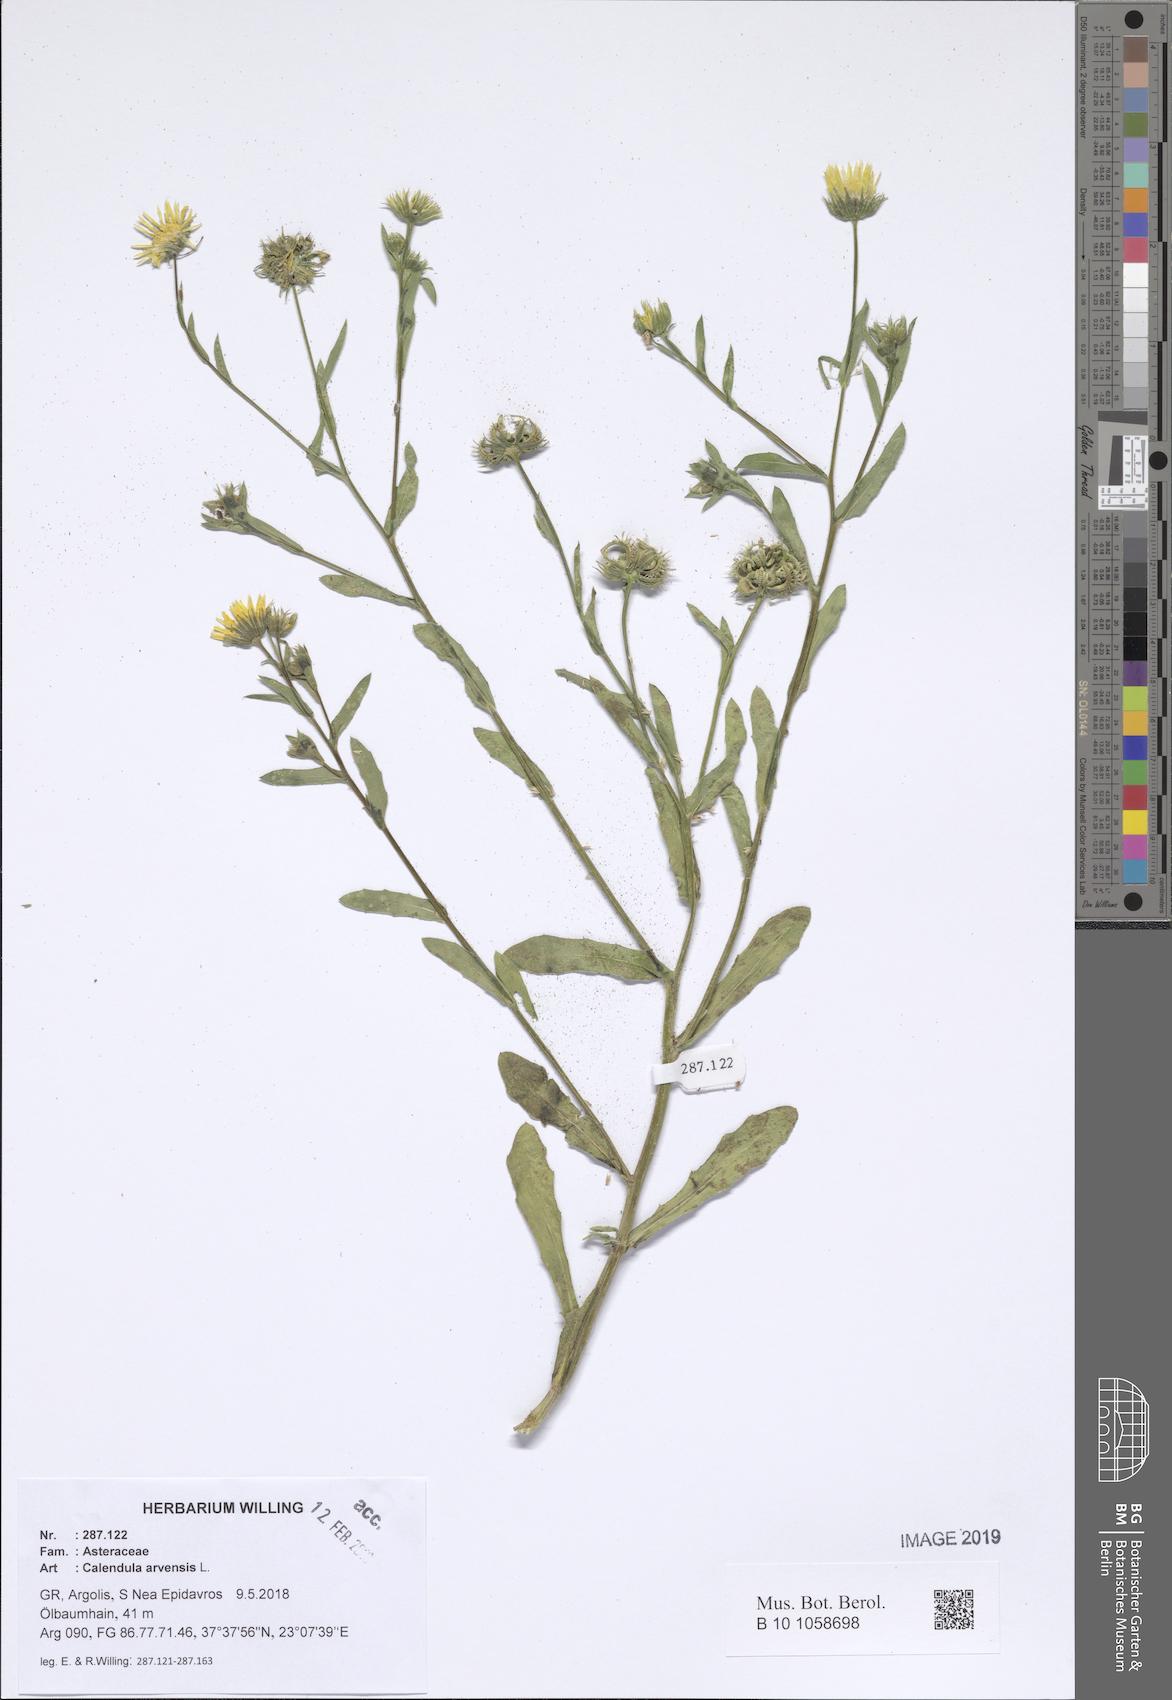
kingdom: Plantae
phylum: Tracheophyta
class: Magnoliopsida
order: Asterales
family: Asteraceae
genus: Calendula
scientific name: Calendula arvensis
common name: Field marigold
